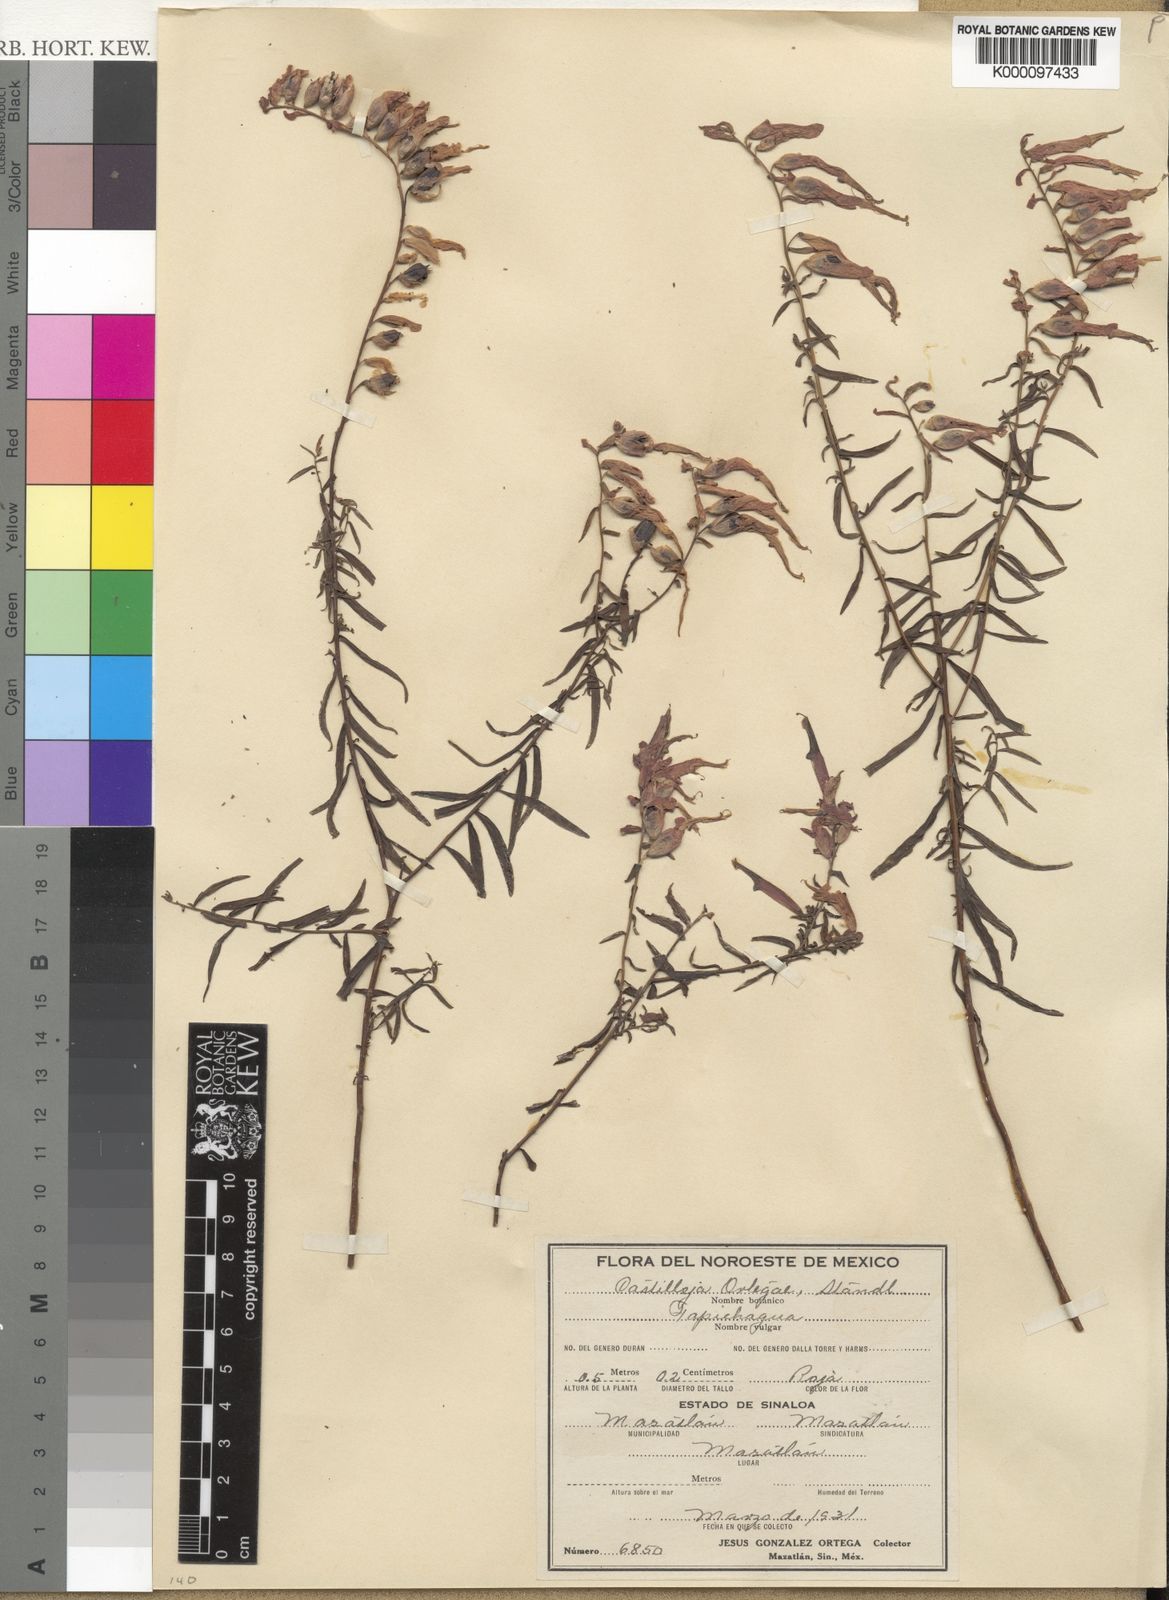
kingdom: Plantae
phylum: Tracheophyta
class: Magnoliopsida
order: Lamiales
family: Orobanchaceae
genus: Castilleja
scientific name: Castilleja ortegae
